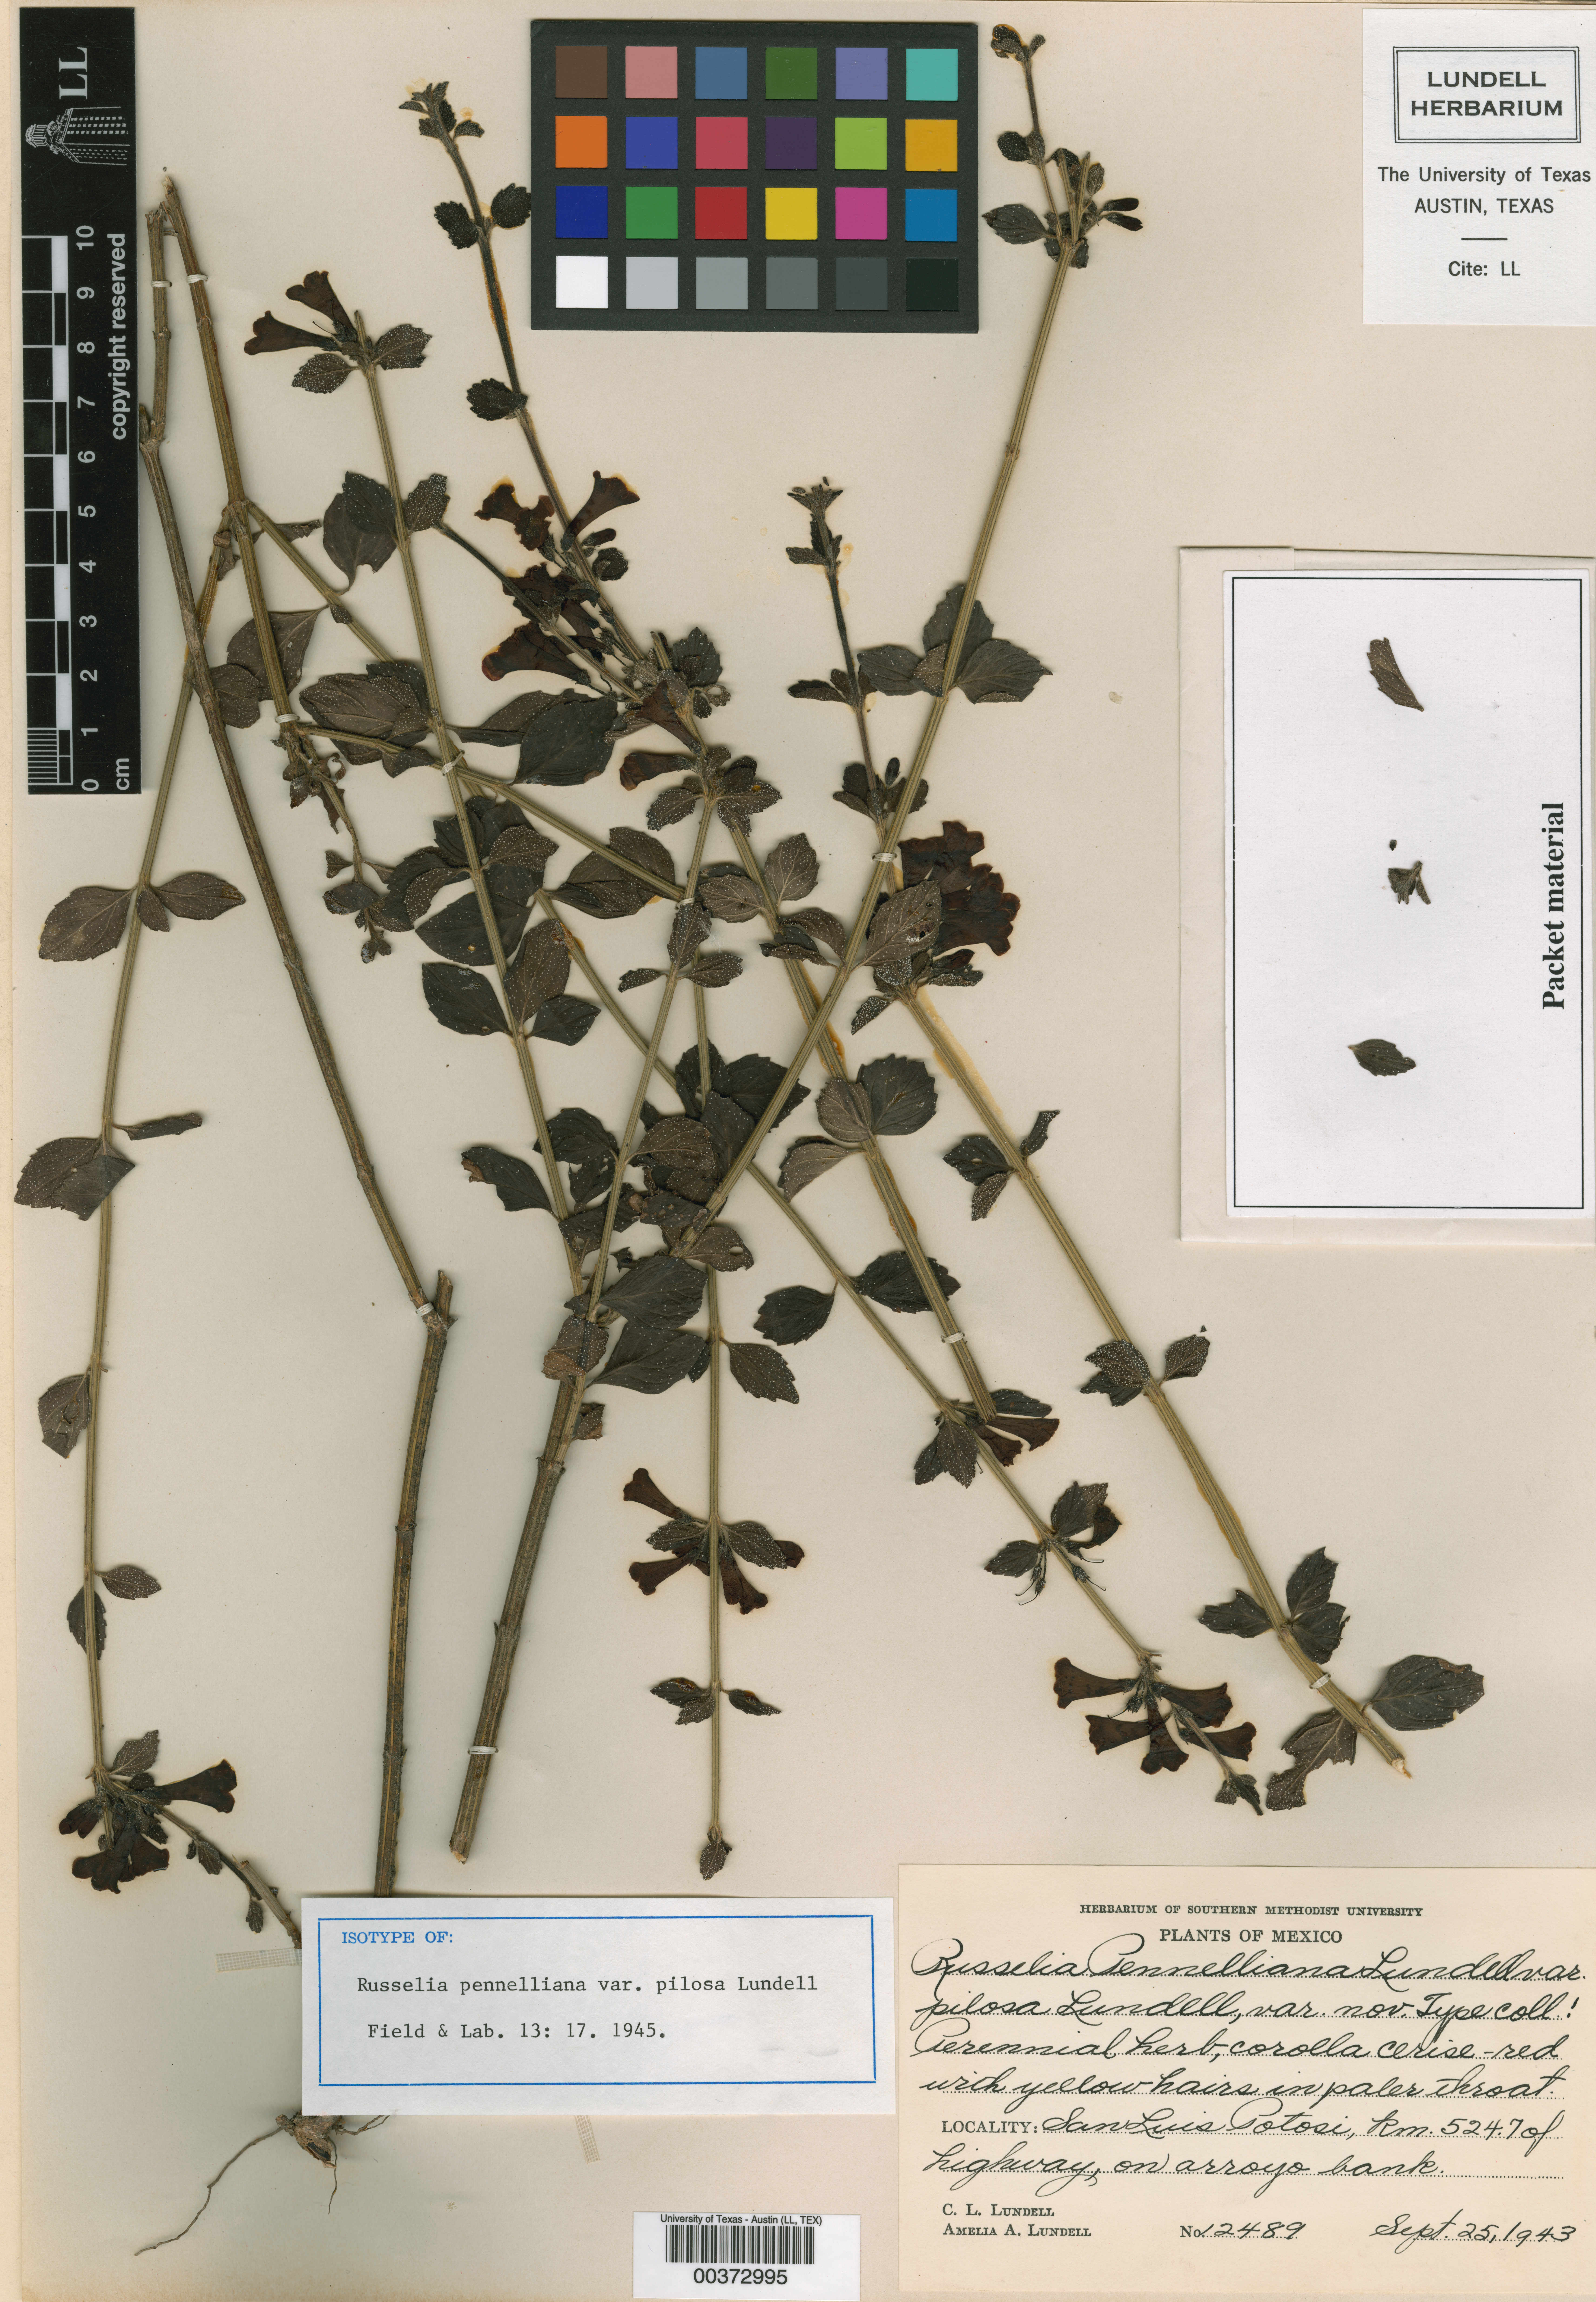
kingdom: Plantae
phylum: Tracheophyta
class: Magnoliopsida
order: Lamiales
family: Plantaginaceae
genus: Russelia
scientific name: Russelia polyedra
